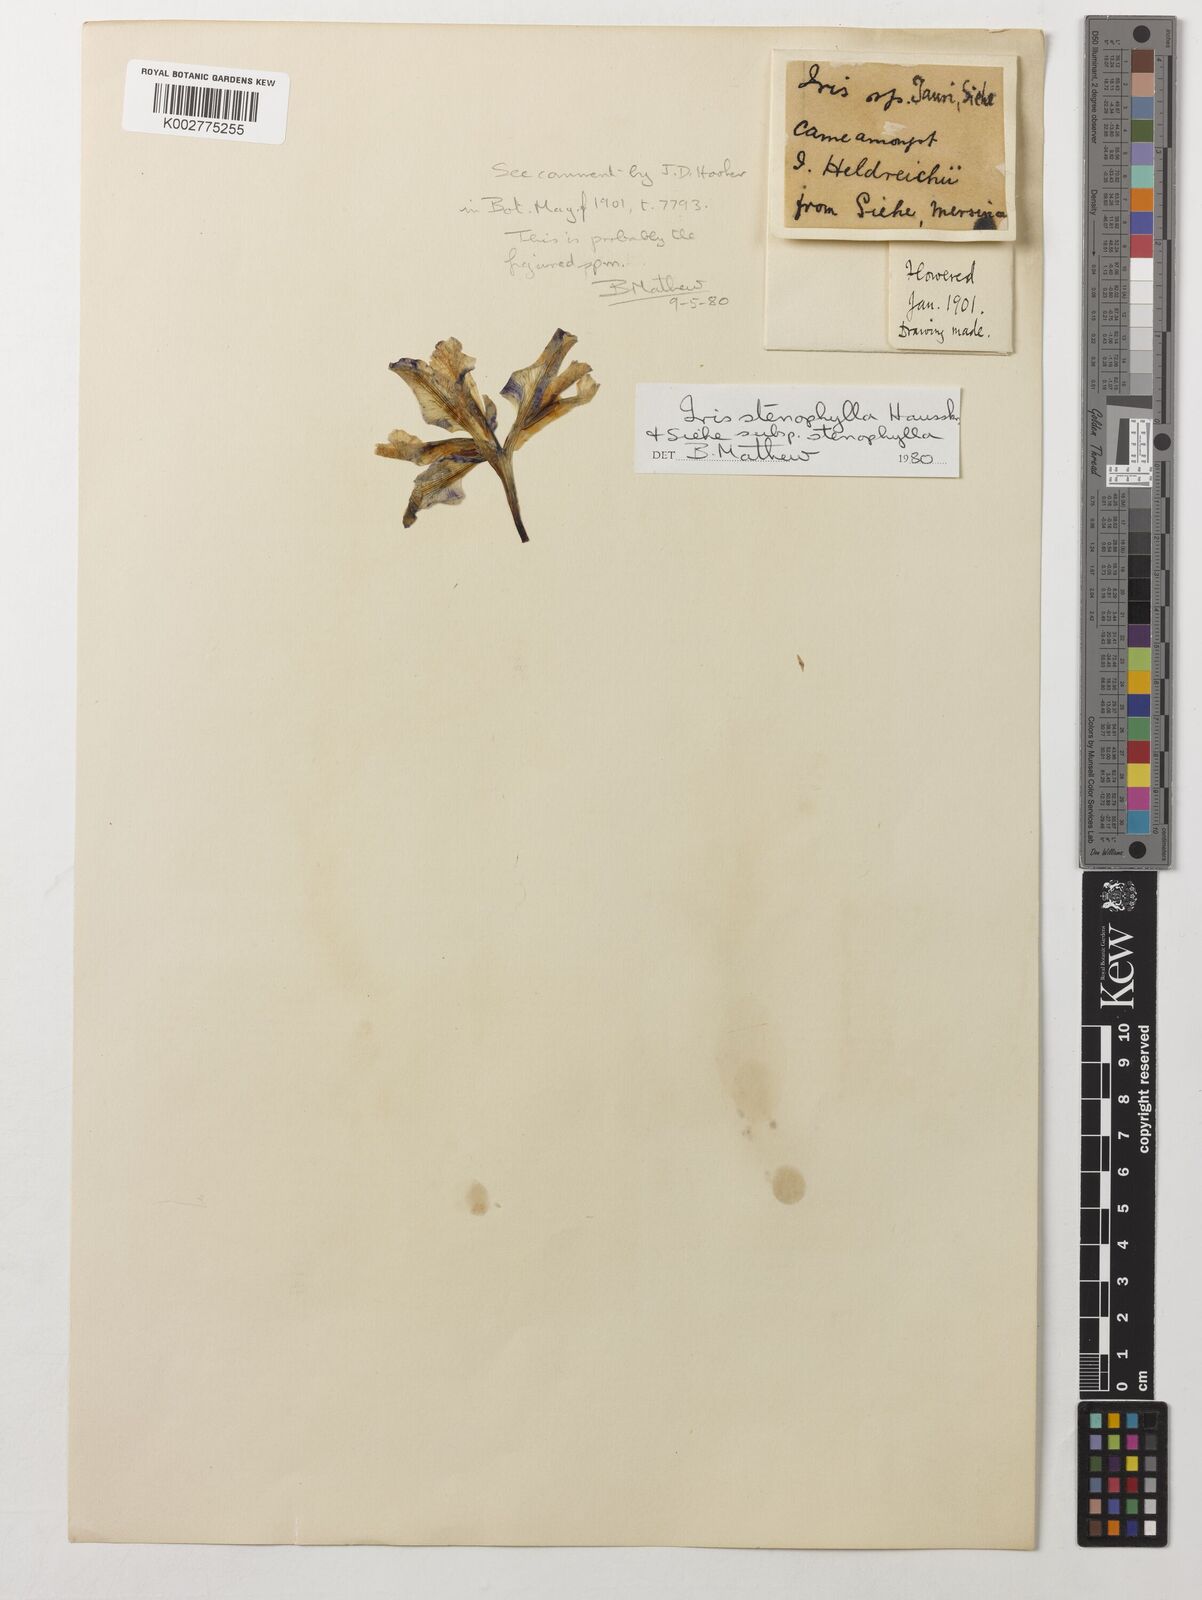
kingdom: Plantae
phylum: Tracheophyta
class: Liliopsida
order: Asparagales
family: Iridaceae
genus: Iris
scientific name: Iris stenophylla
